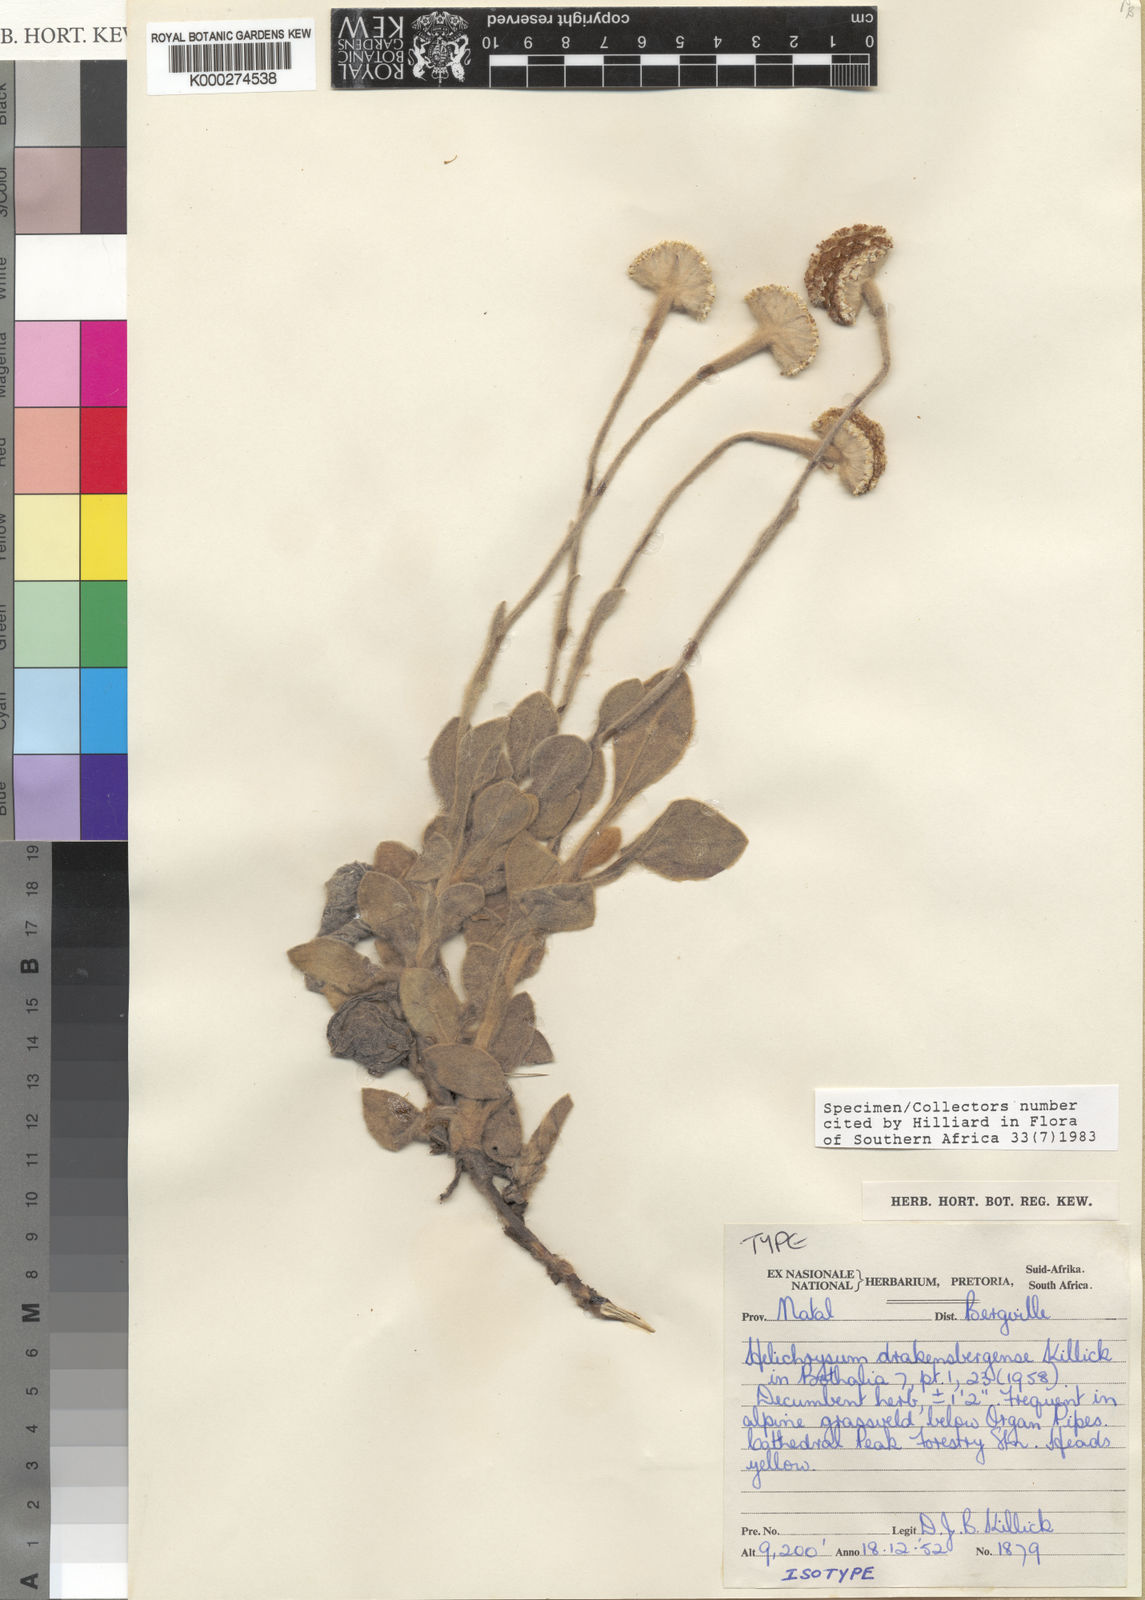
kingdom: Plantae
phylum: Tracheophyta
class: Magnoliopsida
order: Asterales
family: Asteraceae
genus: Helichrysum
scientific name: Helichrysum drakensbergense
